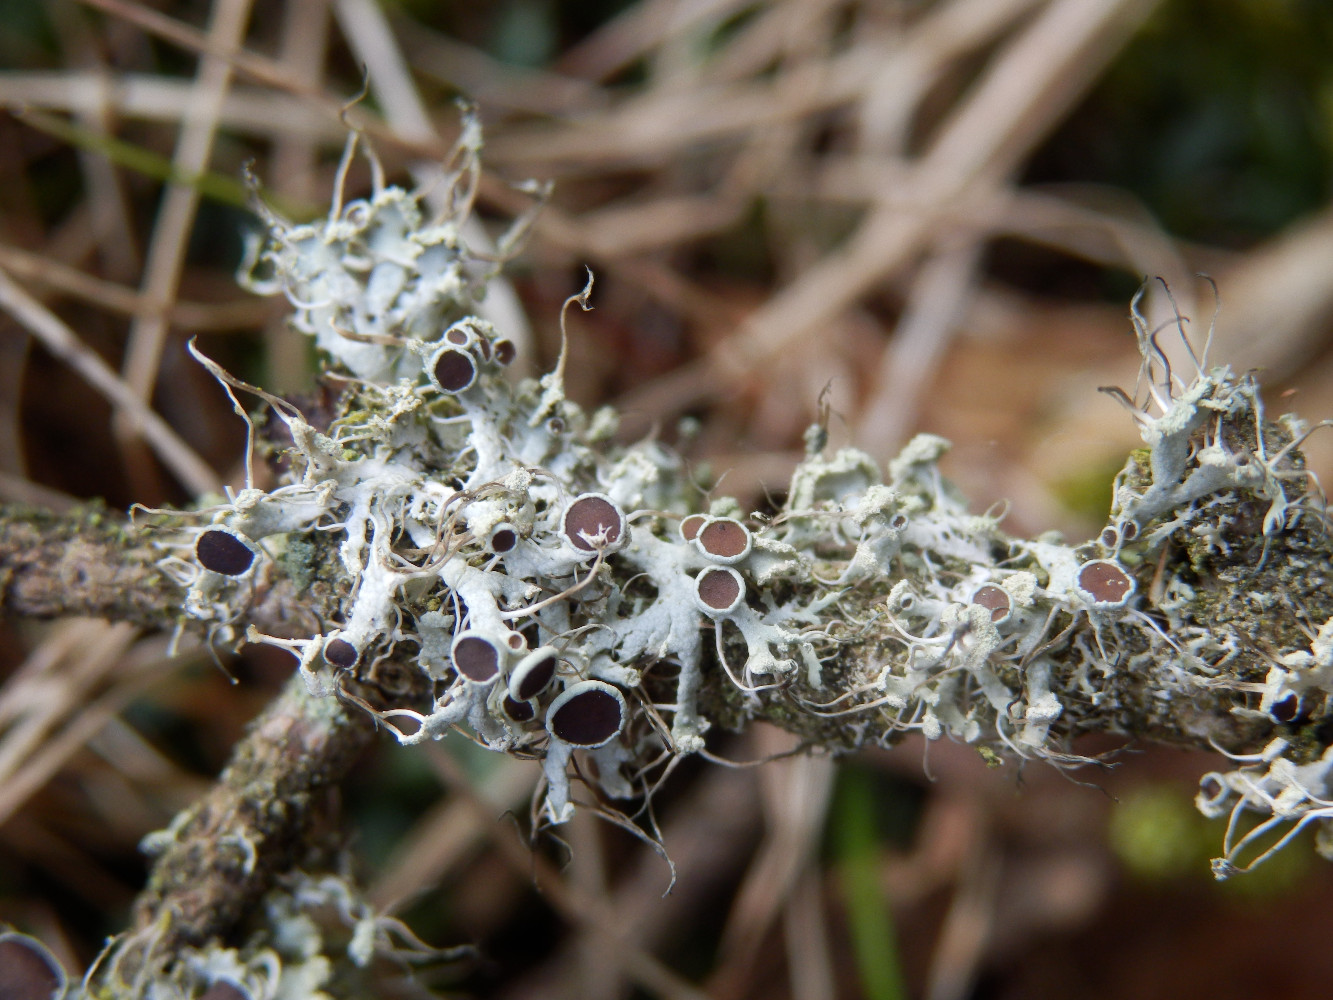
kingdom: Fungi
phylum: Ascomycota
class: Lecanoromycetes
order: Caliciales
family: Physciaceae
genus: Physcia
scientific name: Physcia tenella
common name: spæd rosetlav
